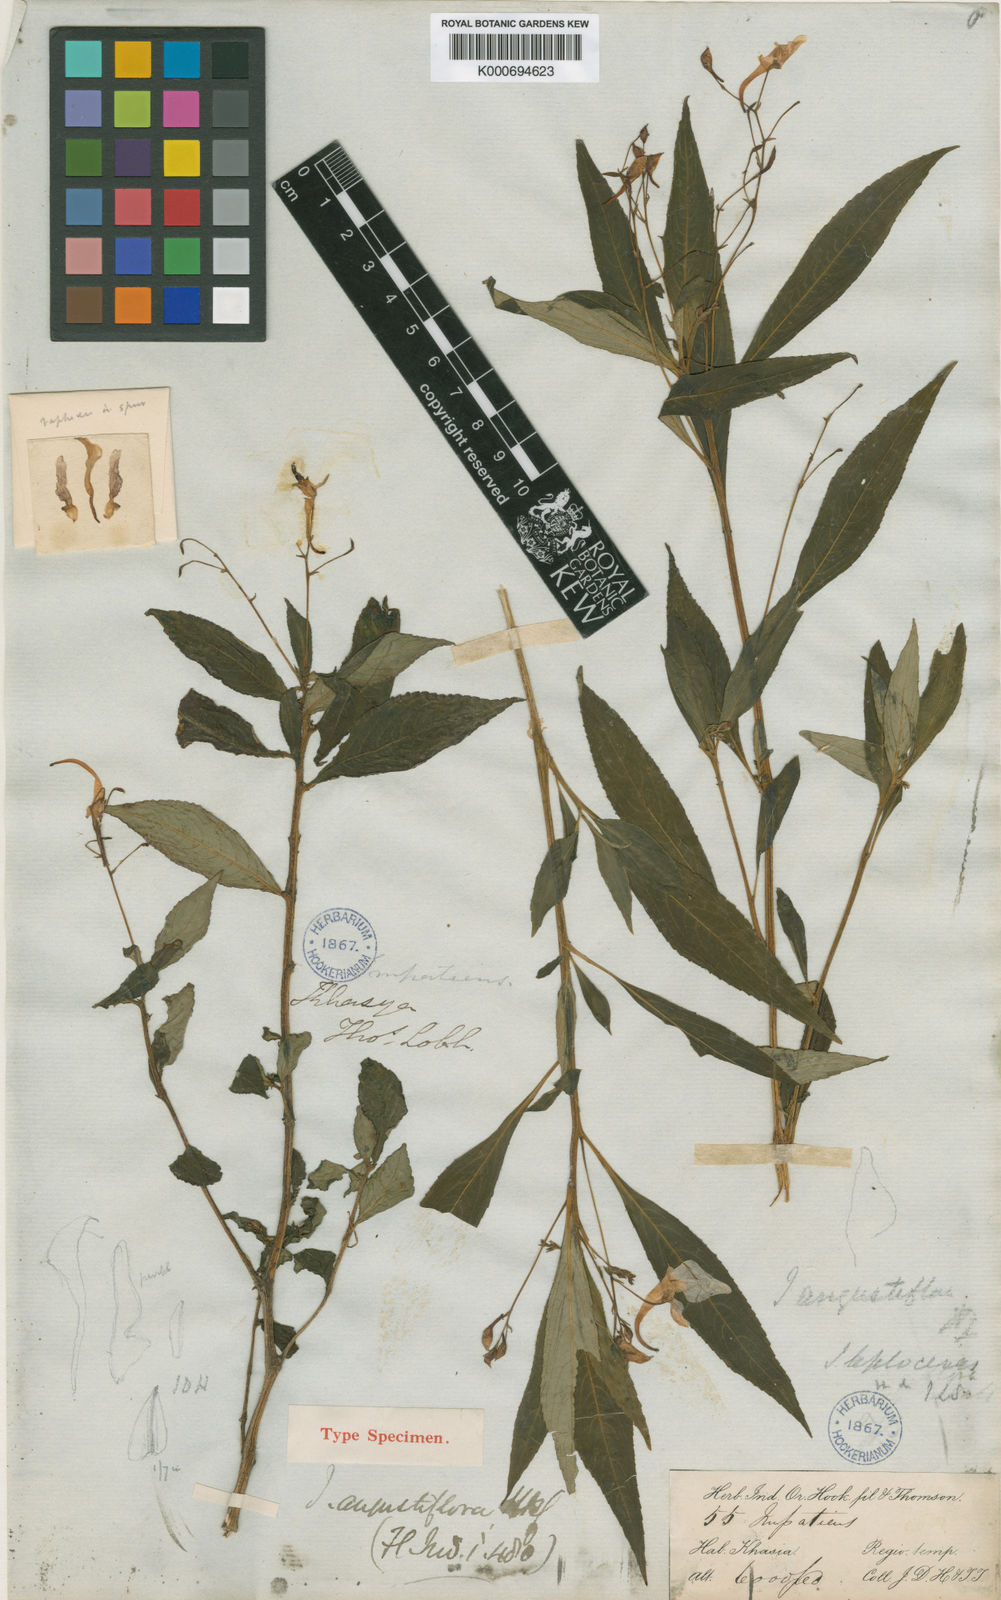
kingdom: Plantae
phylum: Tracheophyta
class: Magnoliopsida
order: Ericales
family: Balsaminaceae
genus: Impatiens
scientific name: Impatiens angustiflora
